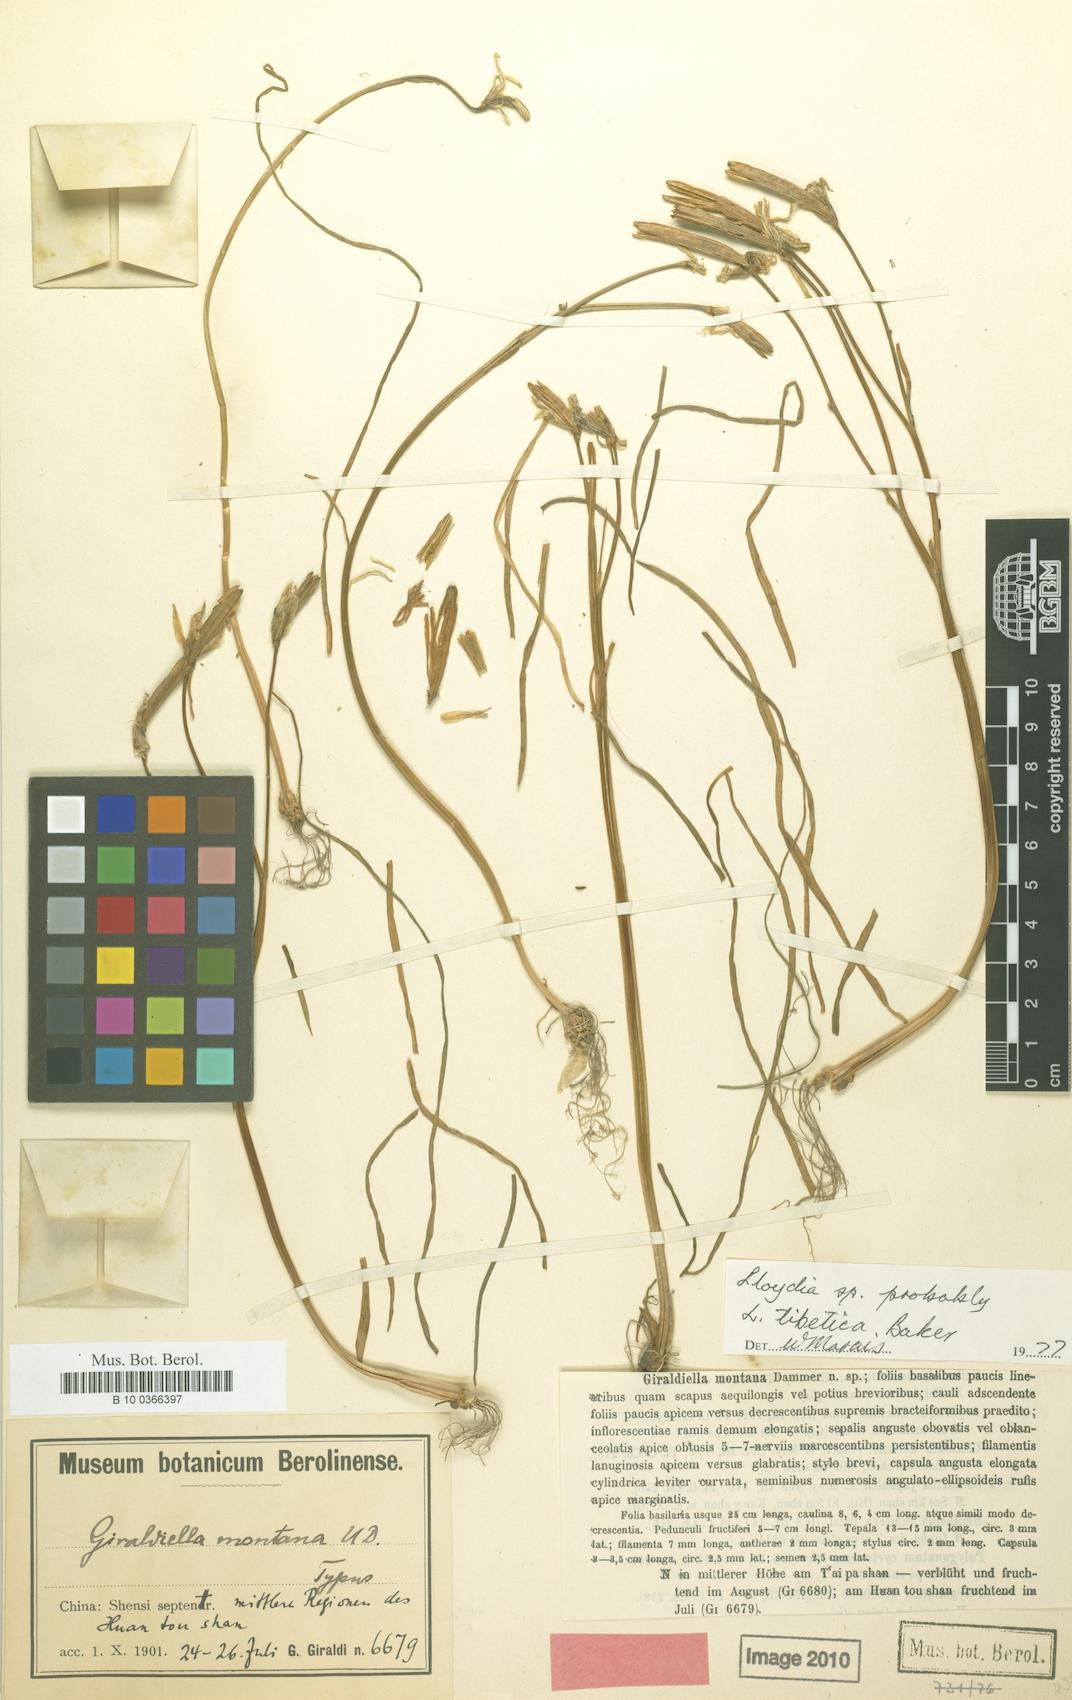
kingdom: Plantae
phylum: Tracheophyta
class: Liliopsida
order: Liliales
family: Liliaceae
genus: Gagea
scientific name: Gagea tibetica
